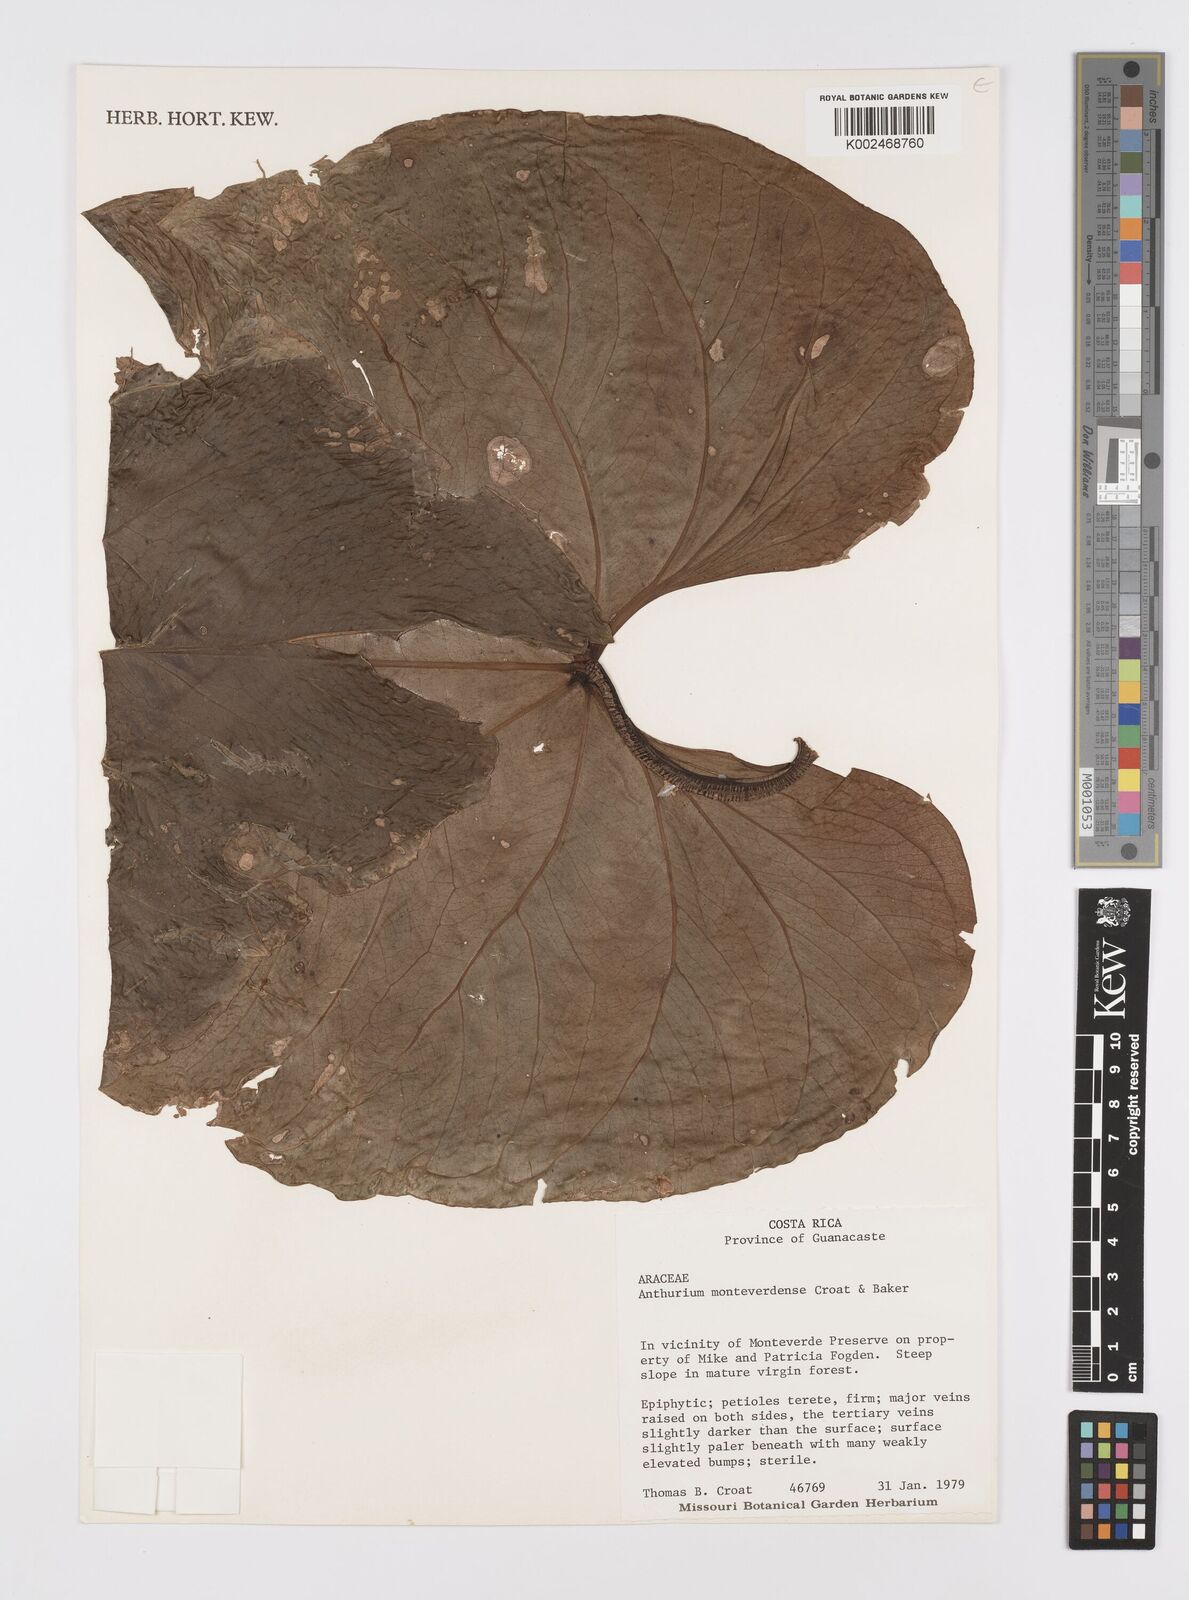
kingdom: Plantae
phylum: Tracheophyta
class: Liliopsida
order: Alismatales
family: Araceae
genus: Anthurium
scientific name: Anthurium monteverdense
